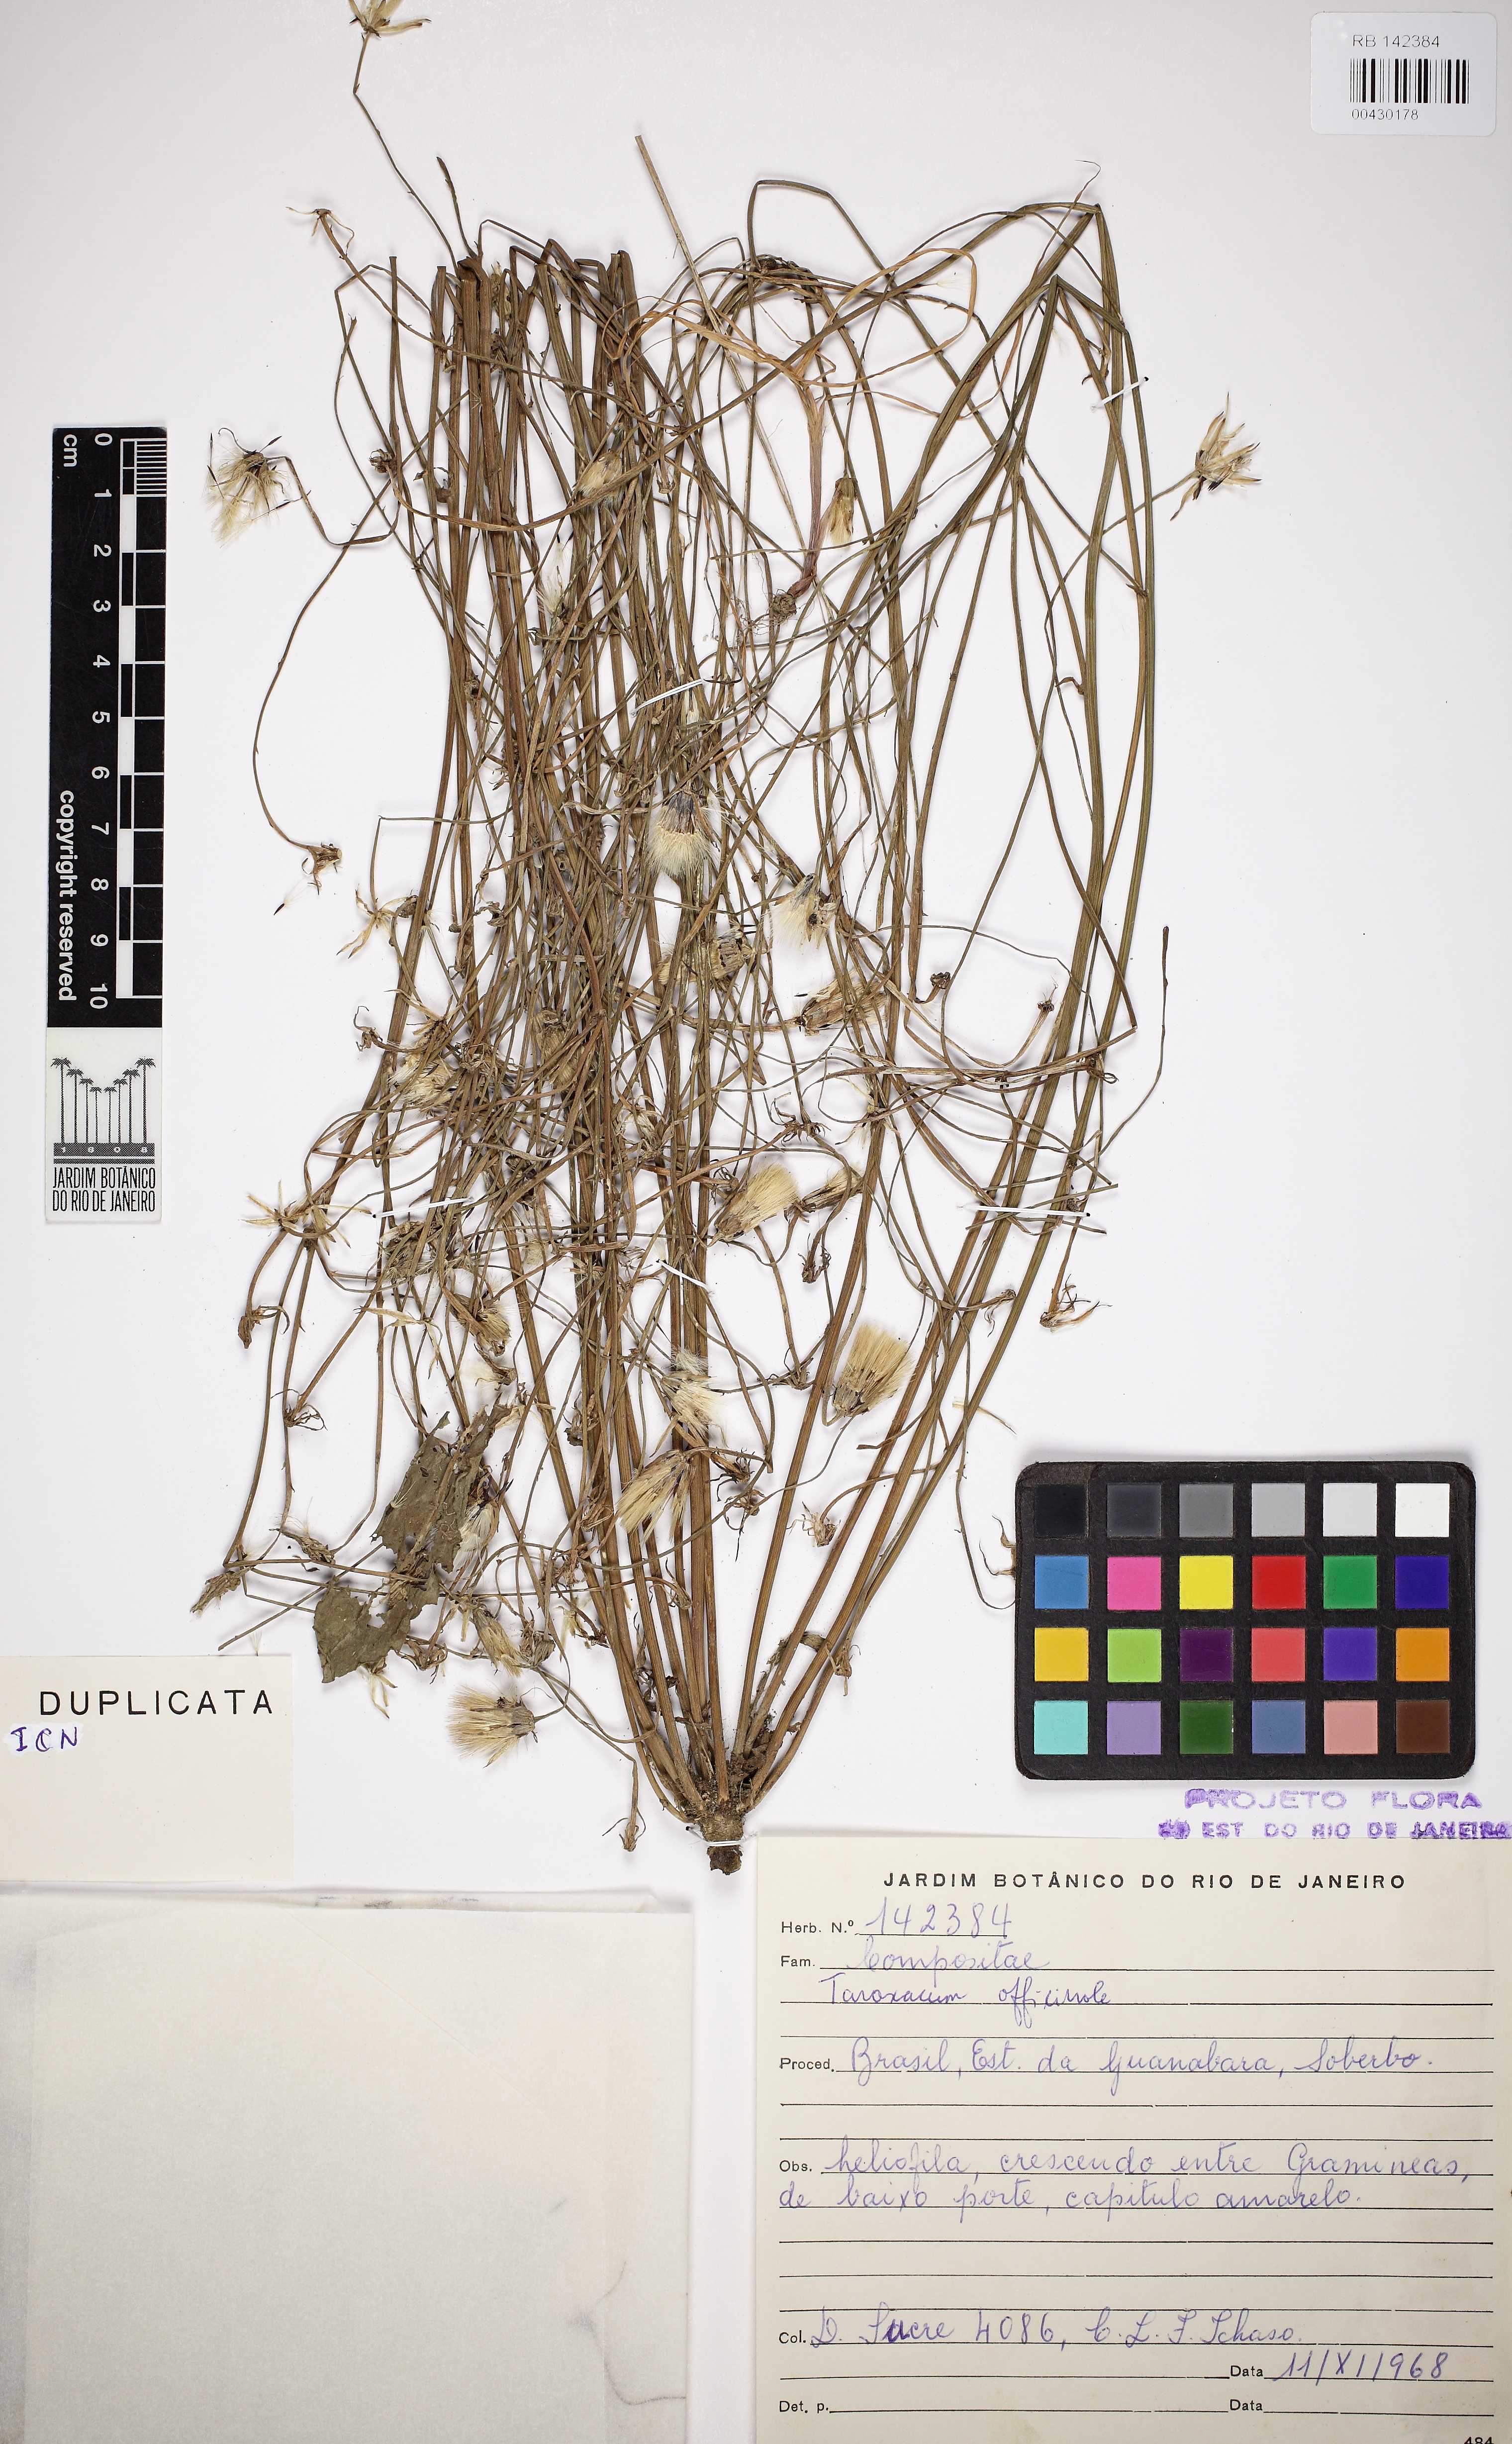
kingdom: Plantae
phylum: Tracheophyta
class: Magnoliopsida
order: Asterales
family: Asteraceae
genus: Taraxacum
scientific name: Taraxacum officinale
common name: Common dandelion
